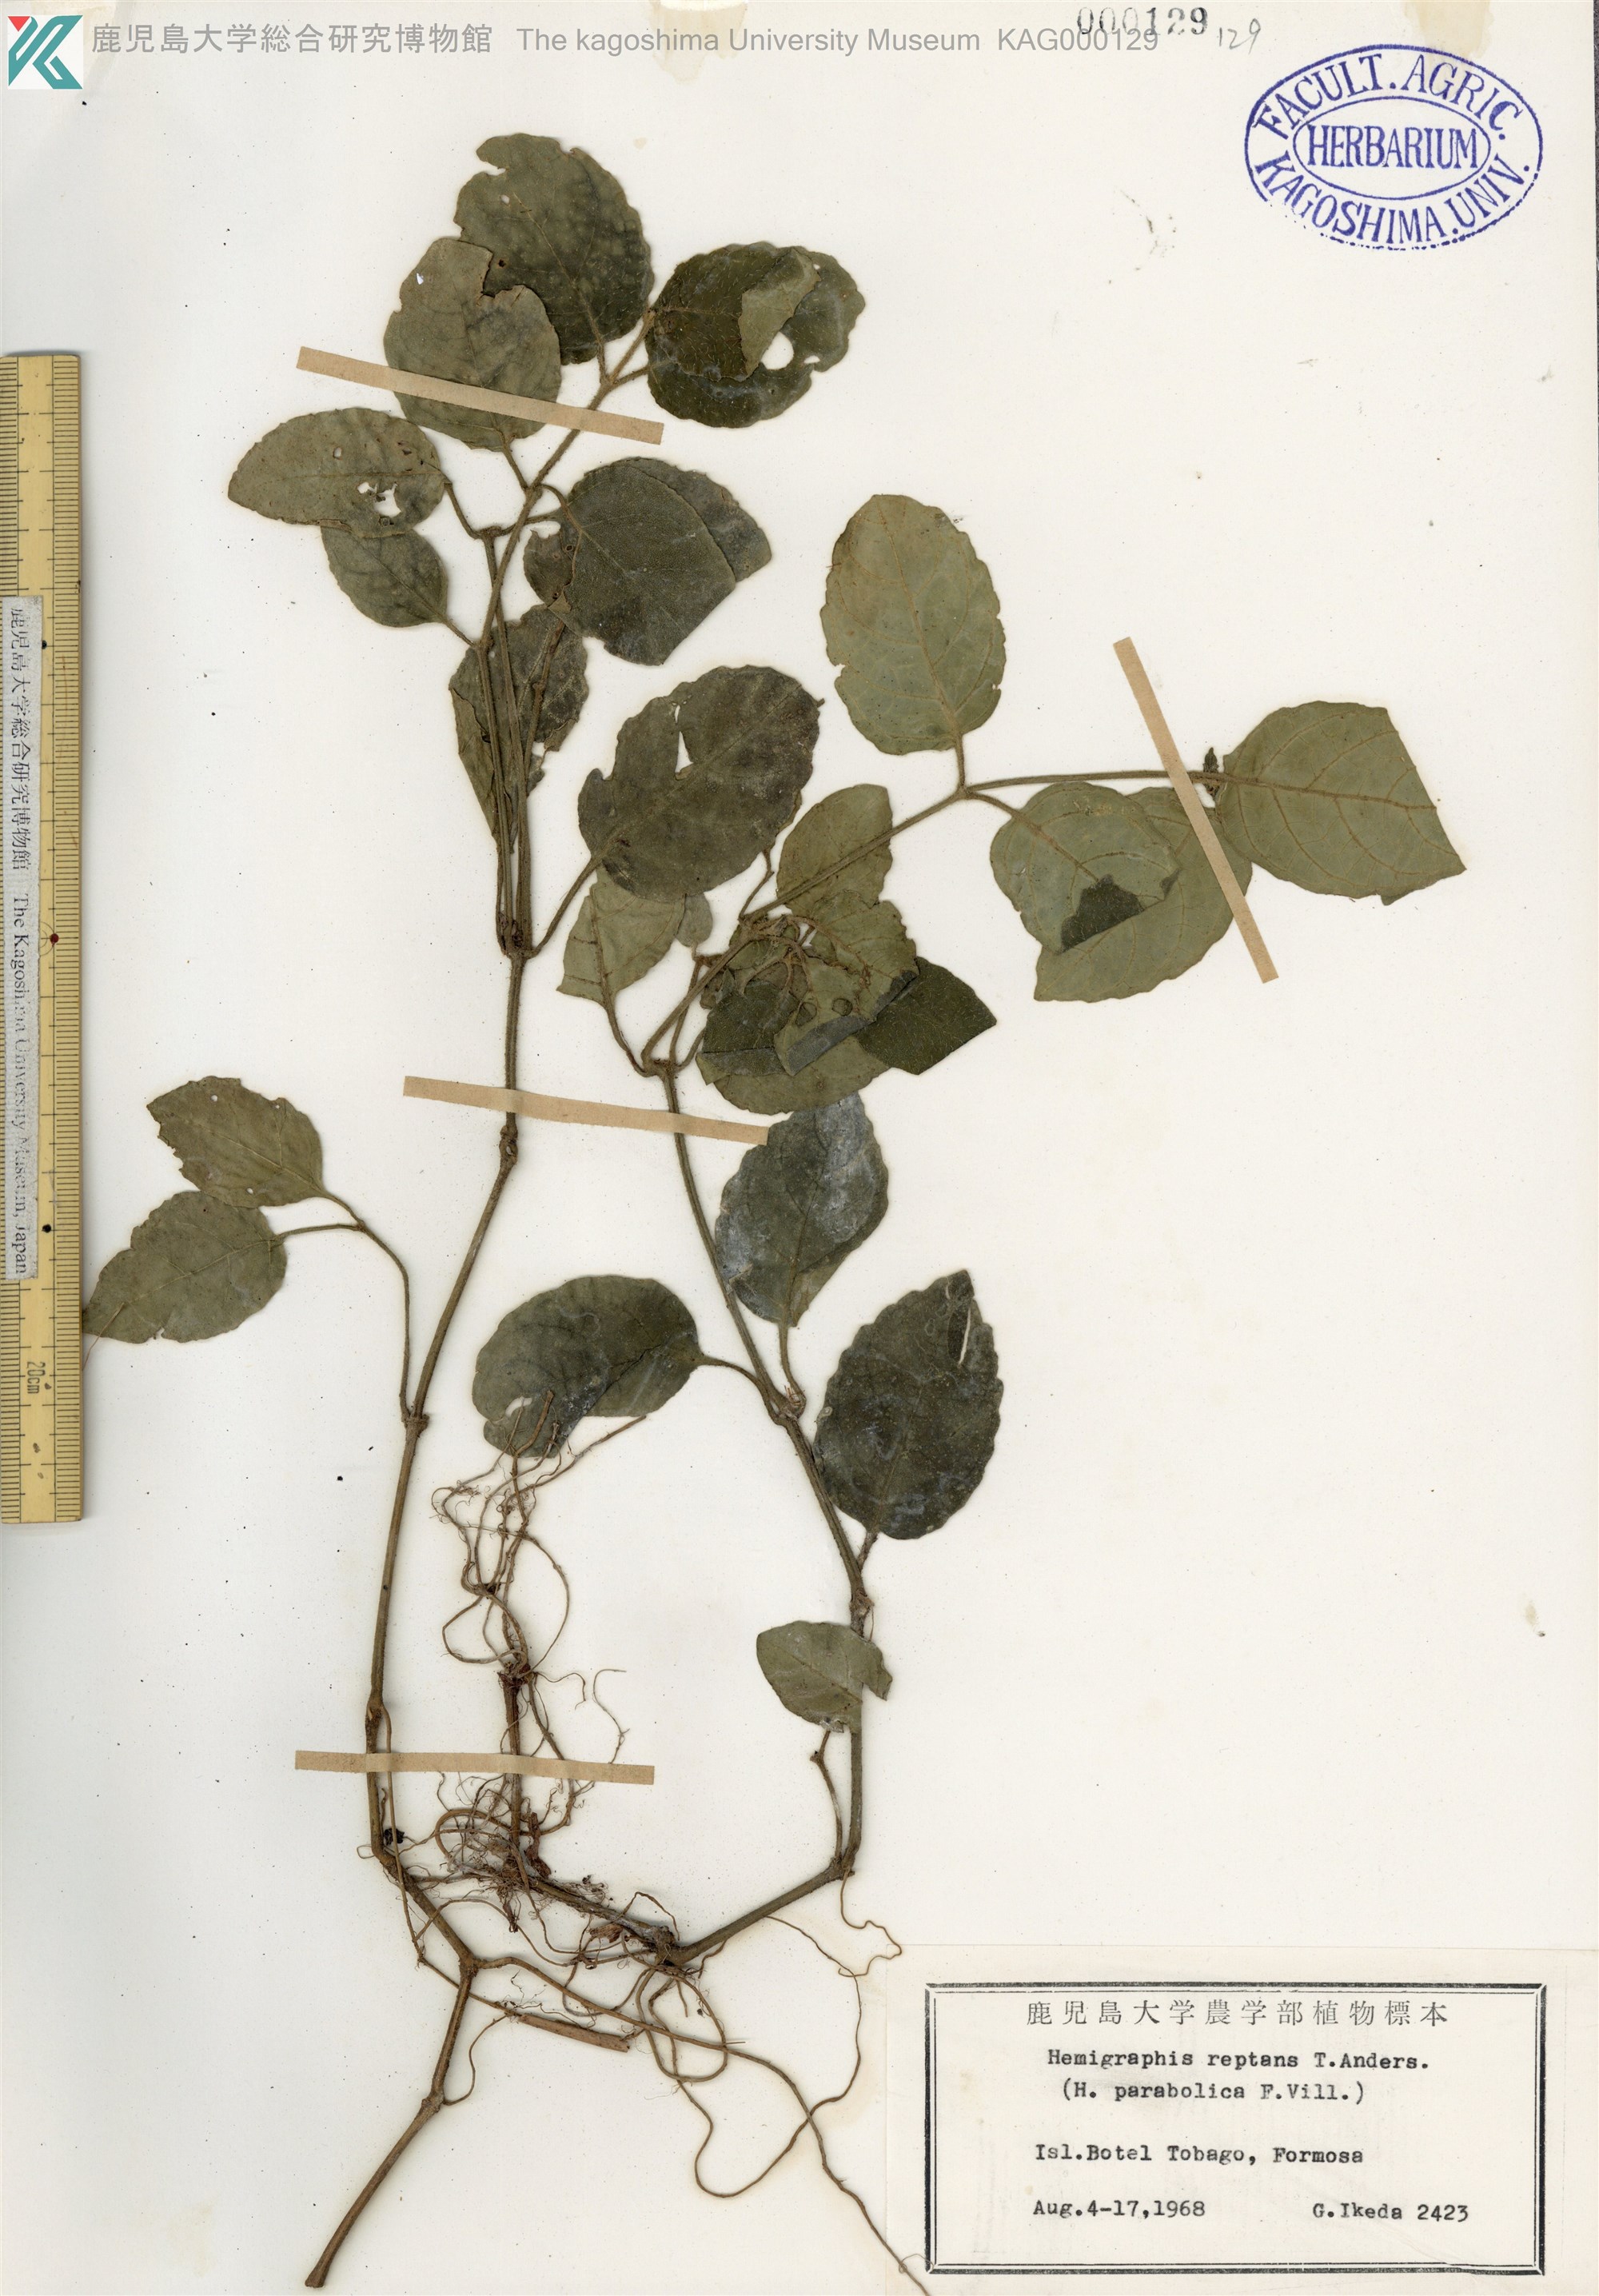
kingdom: Plantae
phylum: Tracheophyta
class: Magnoliopsida
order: Lamiales
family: Acanthaceae
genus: Hemigraphis
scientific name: Hemigraphis reptans
